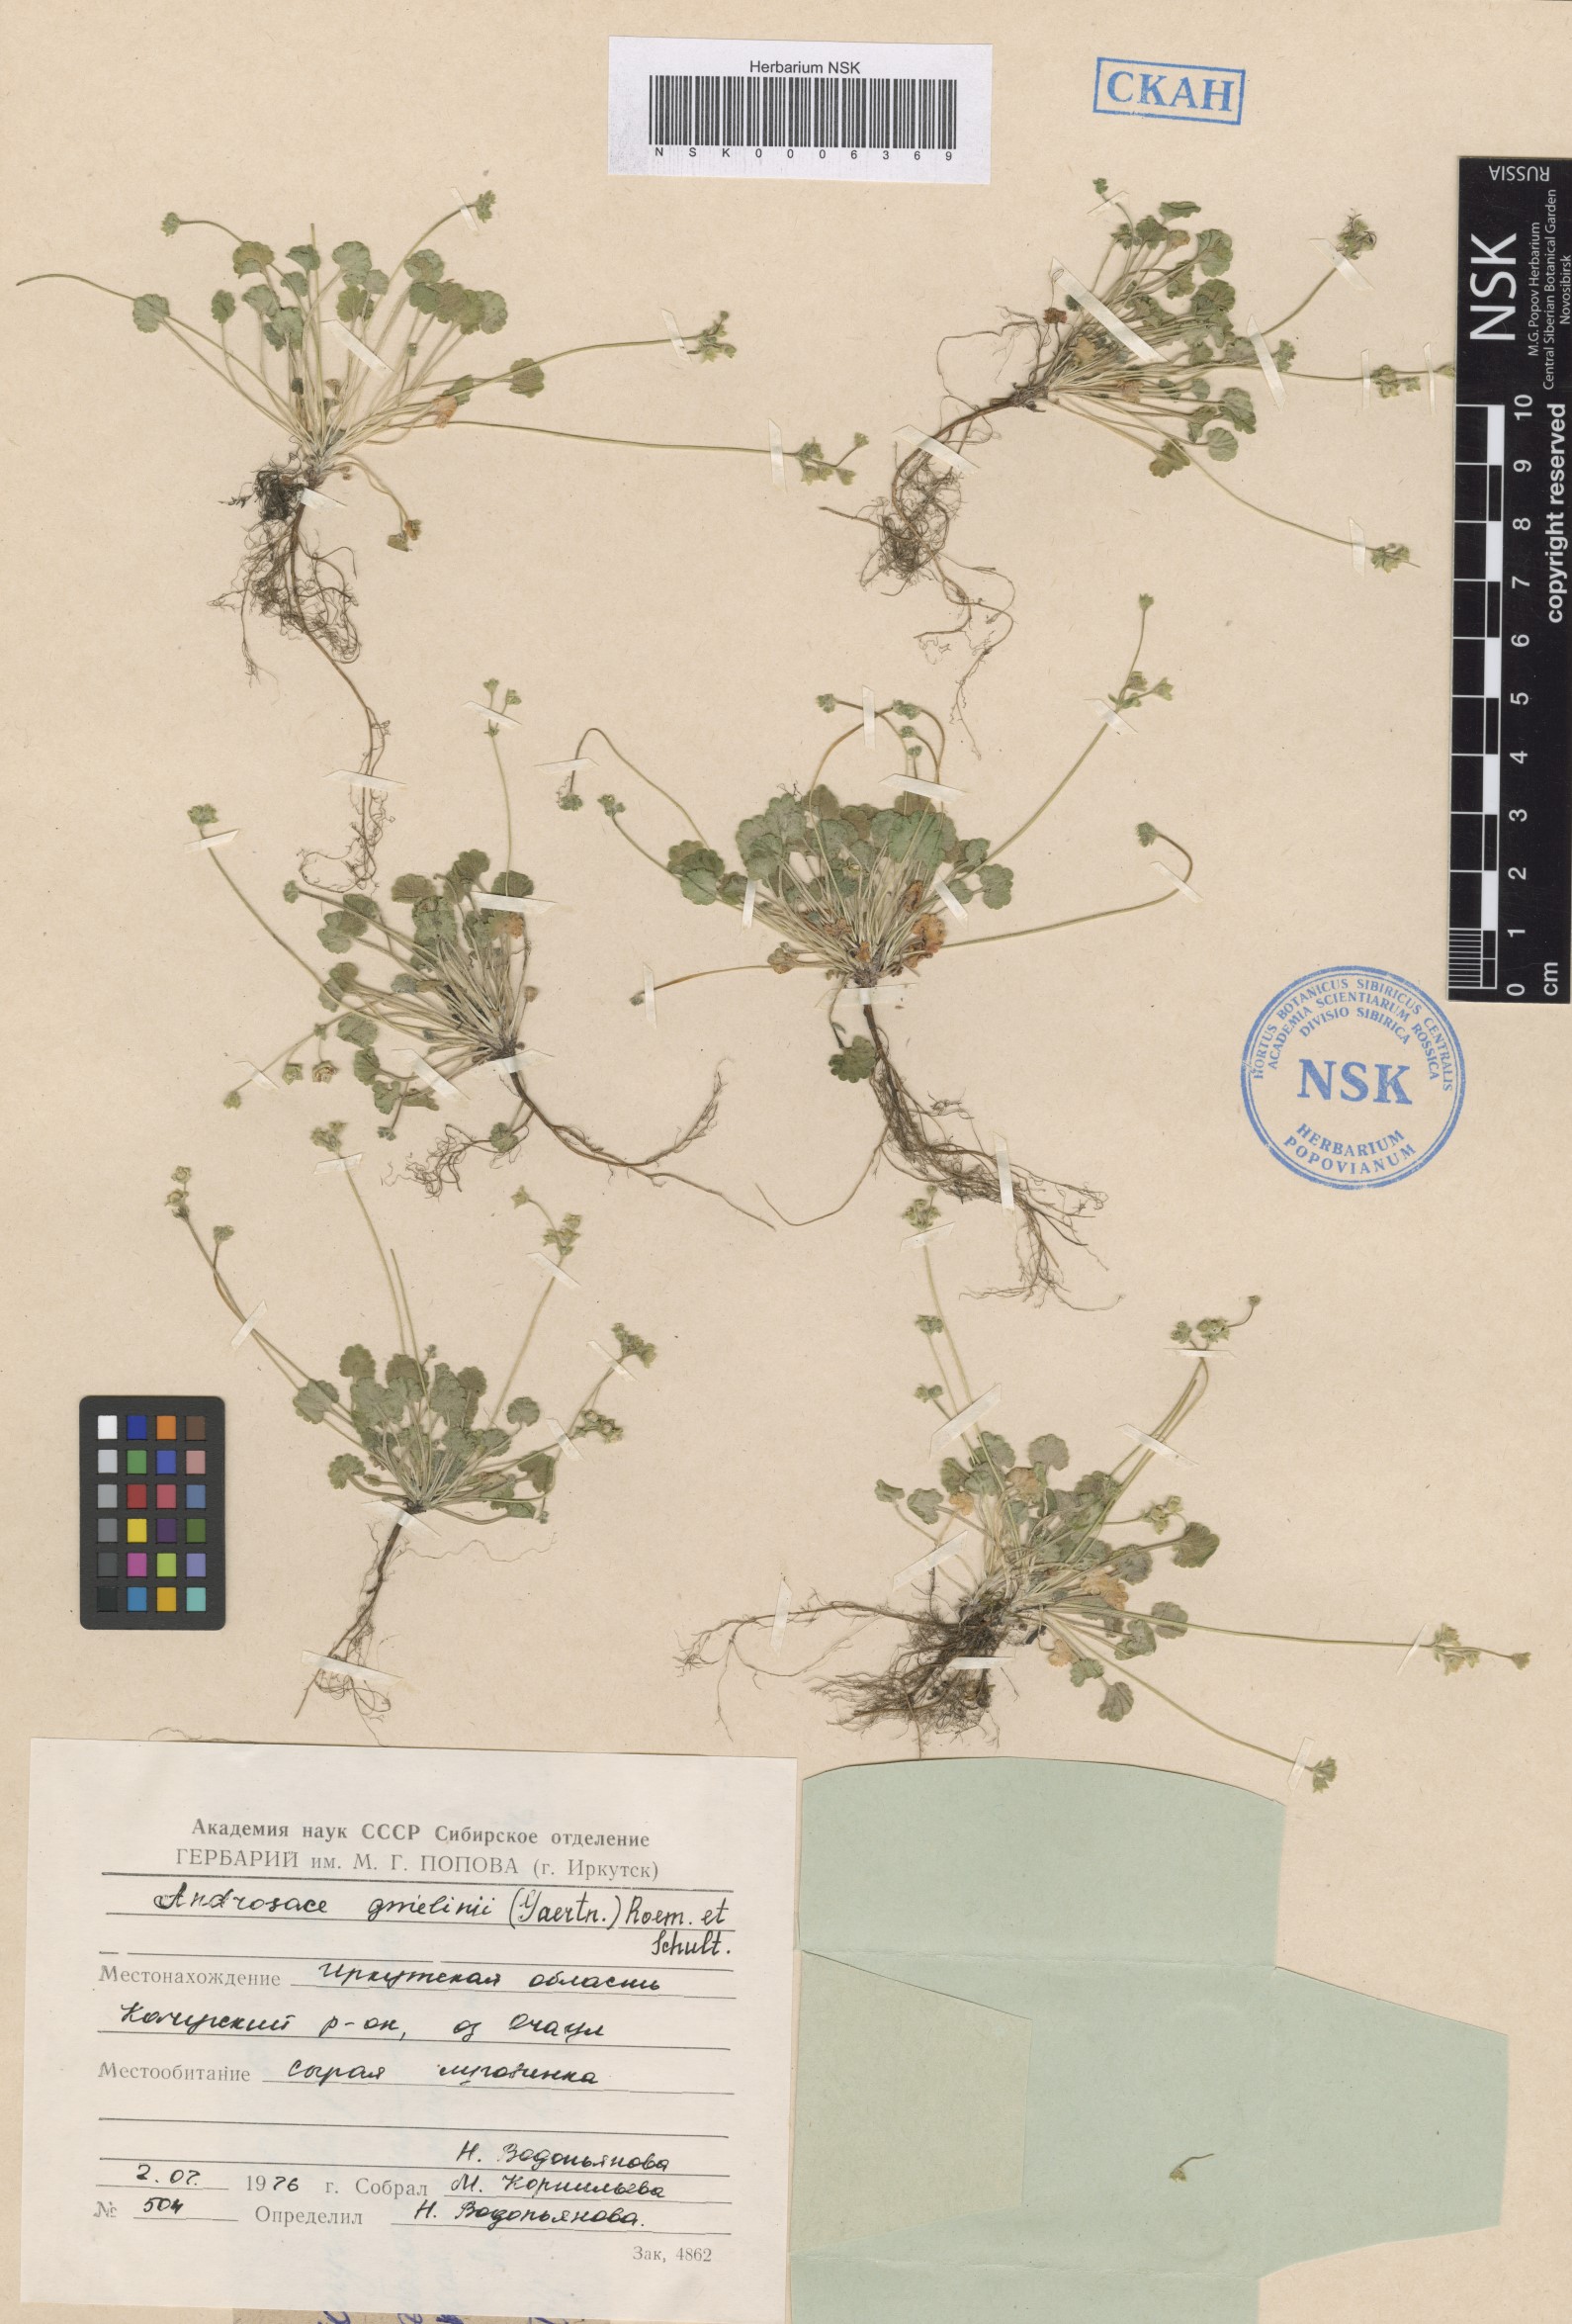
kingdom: Plantae
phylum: Tracheophyta
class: Magnoliopsida
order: Ericales
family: Primulaceae
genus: Androsace
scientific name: Androsace gmelinii
